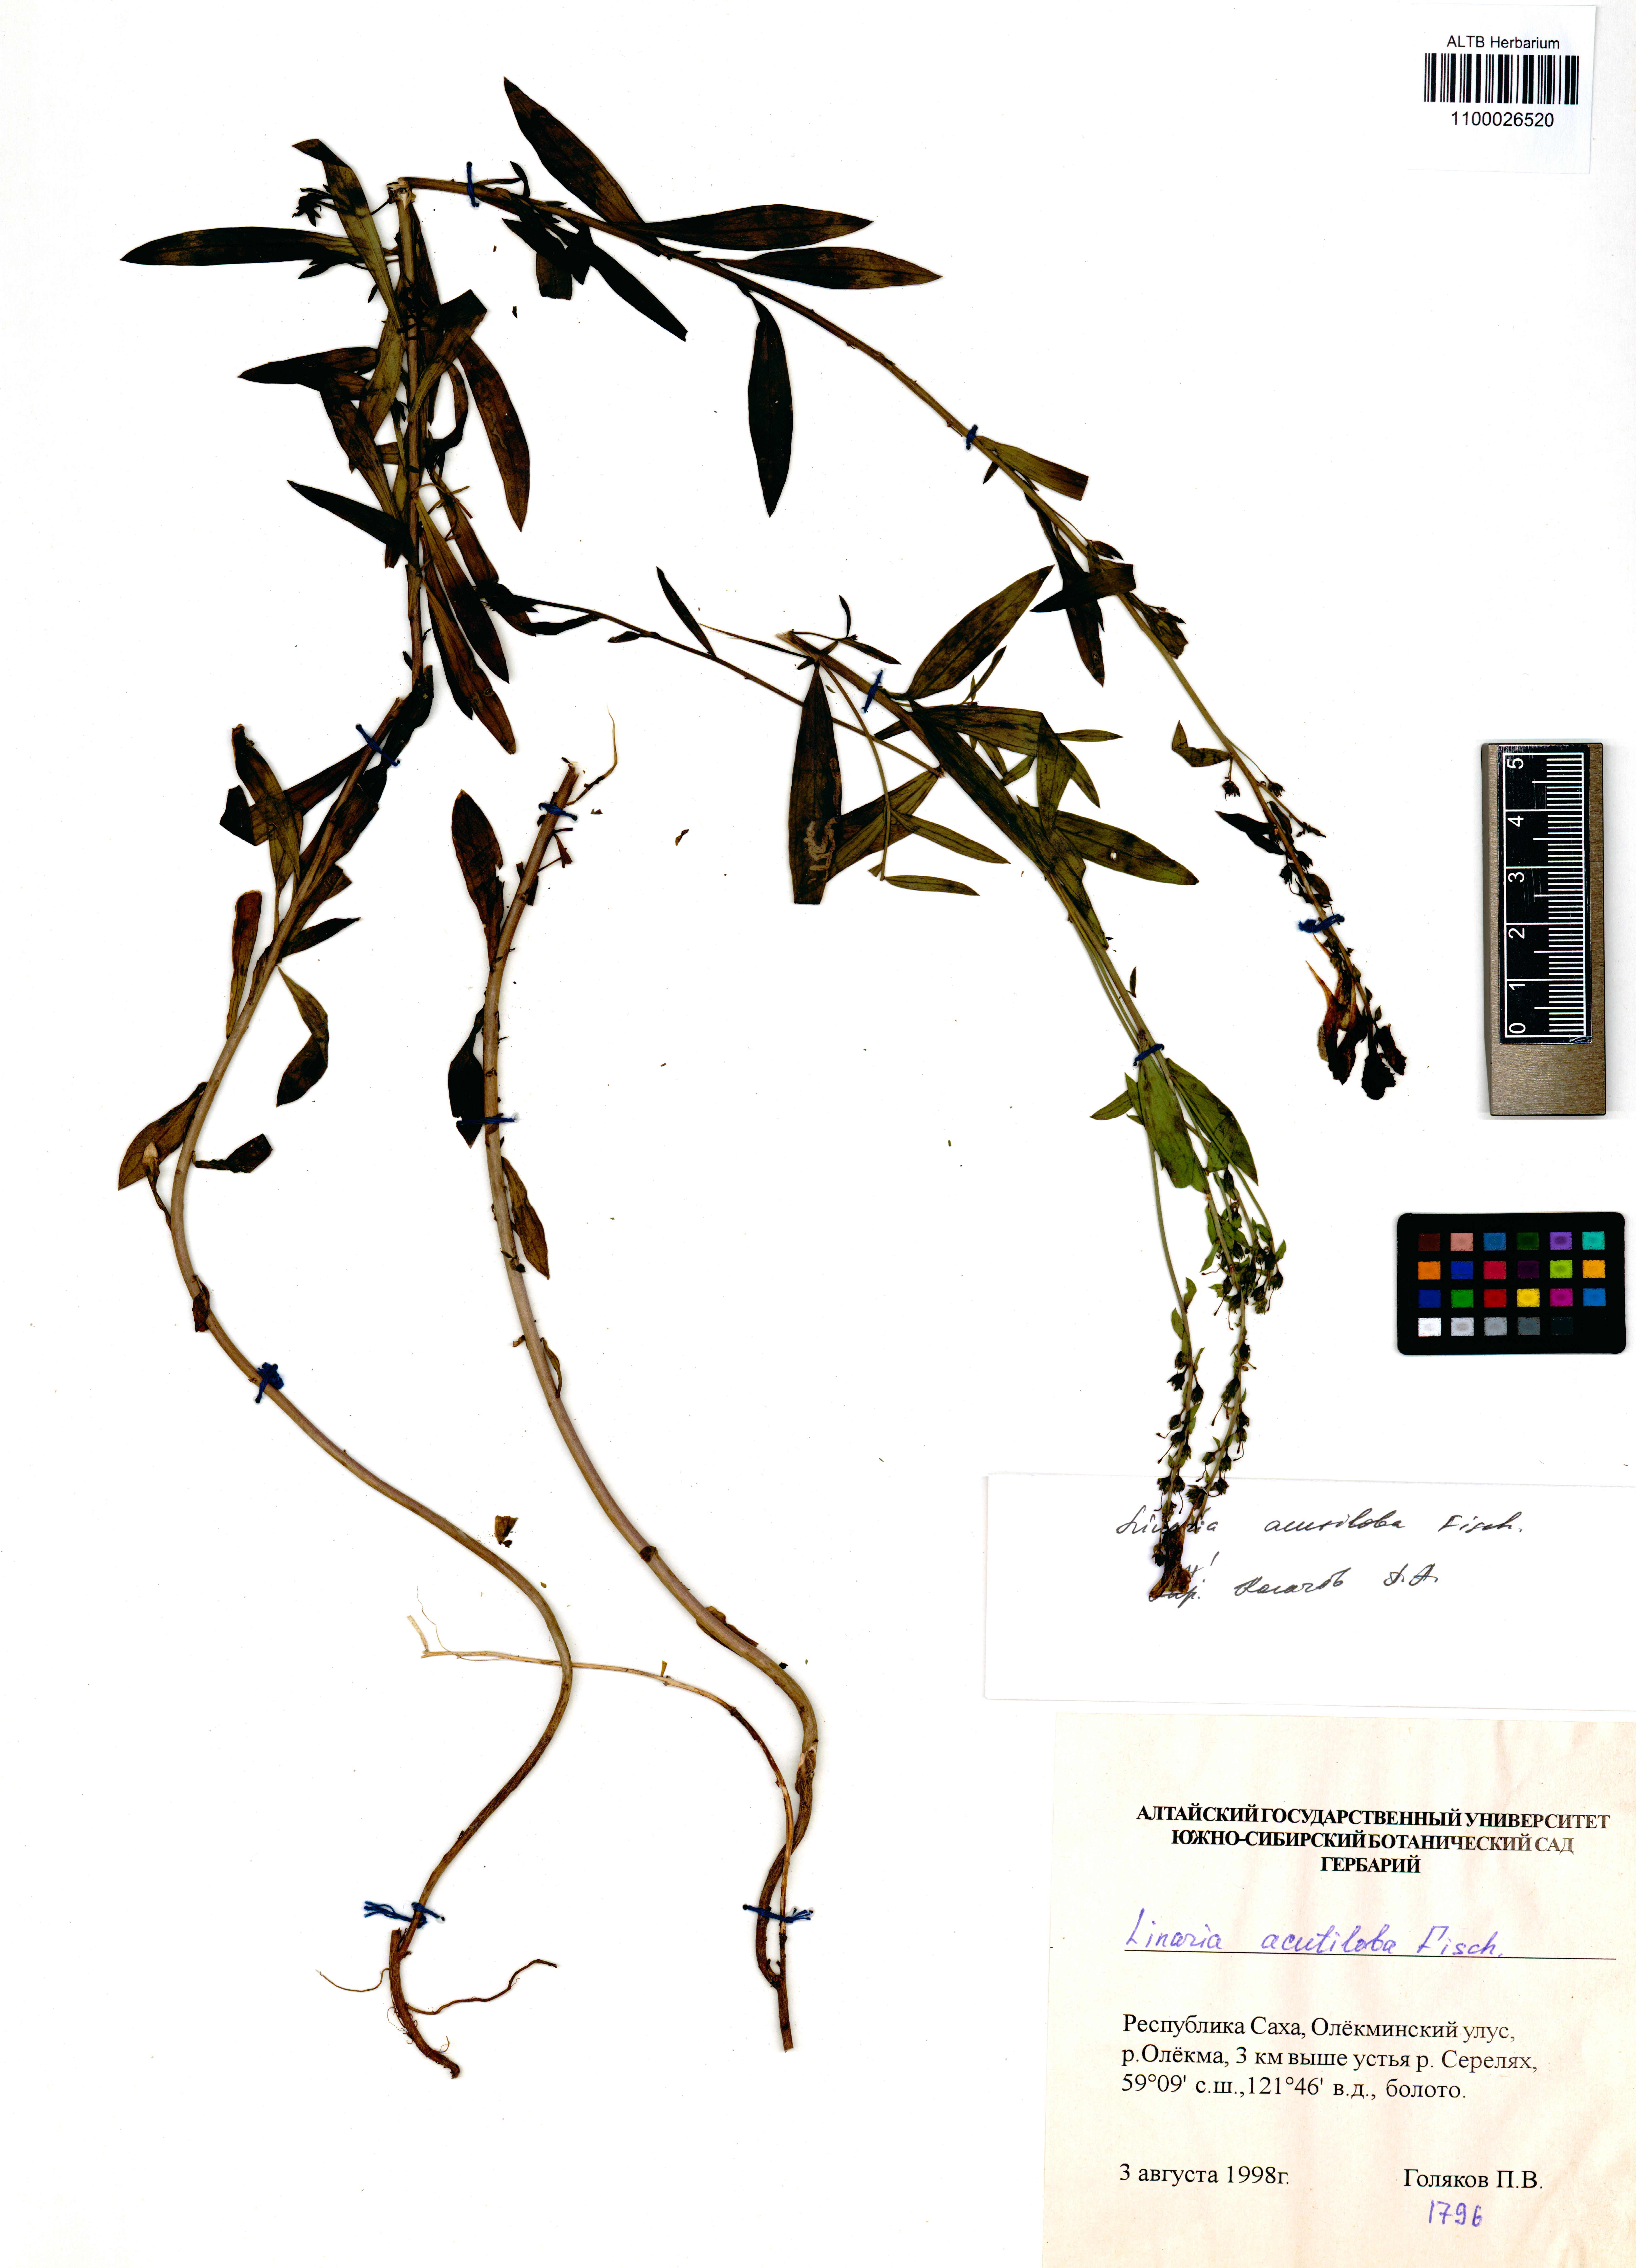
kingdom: Plantae
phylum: Tracheophyta
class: Magnoliopsida
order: Lamiales
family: Plantaginaceae
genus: Linaria
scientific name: Linaria acutiloba
